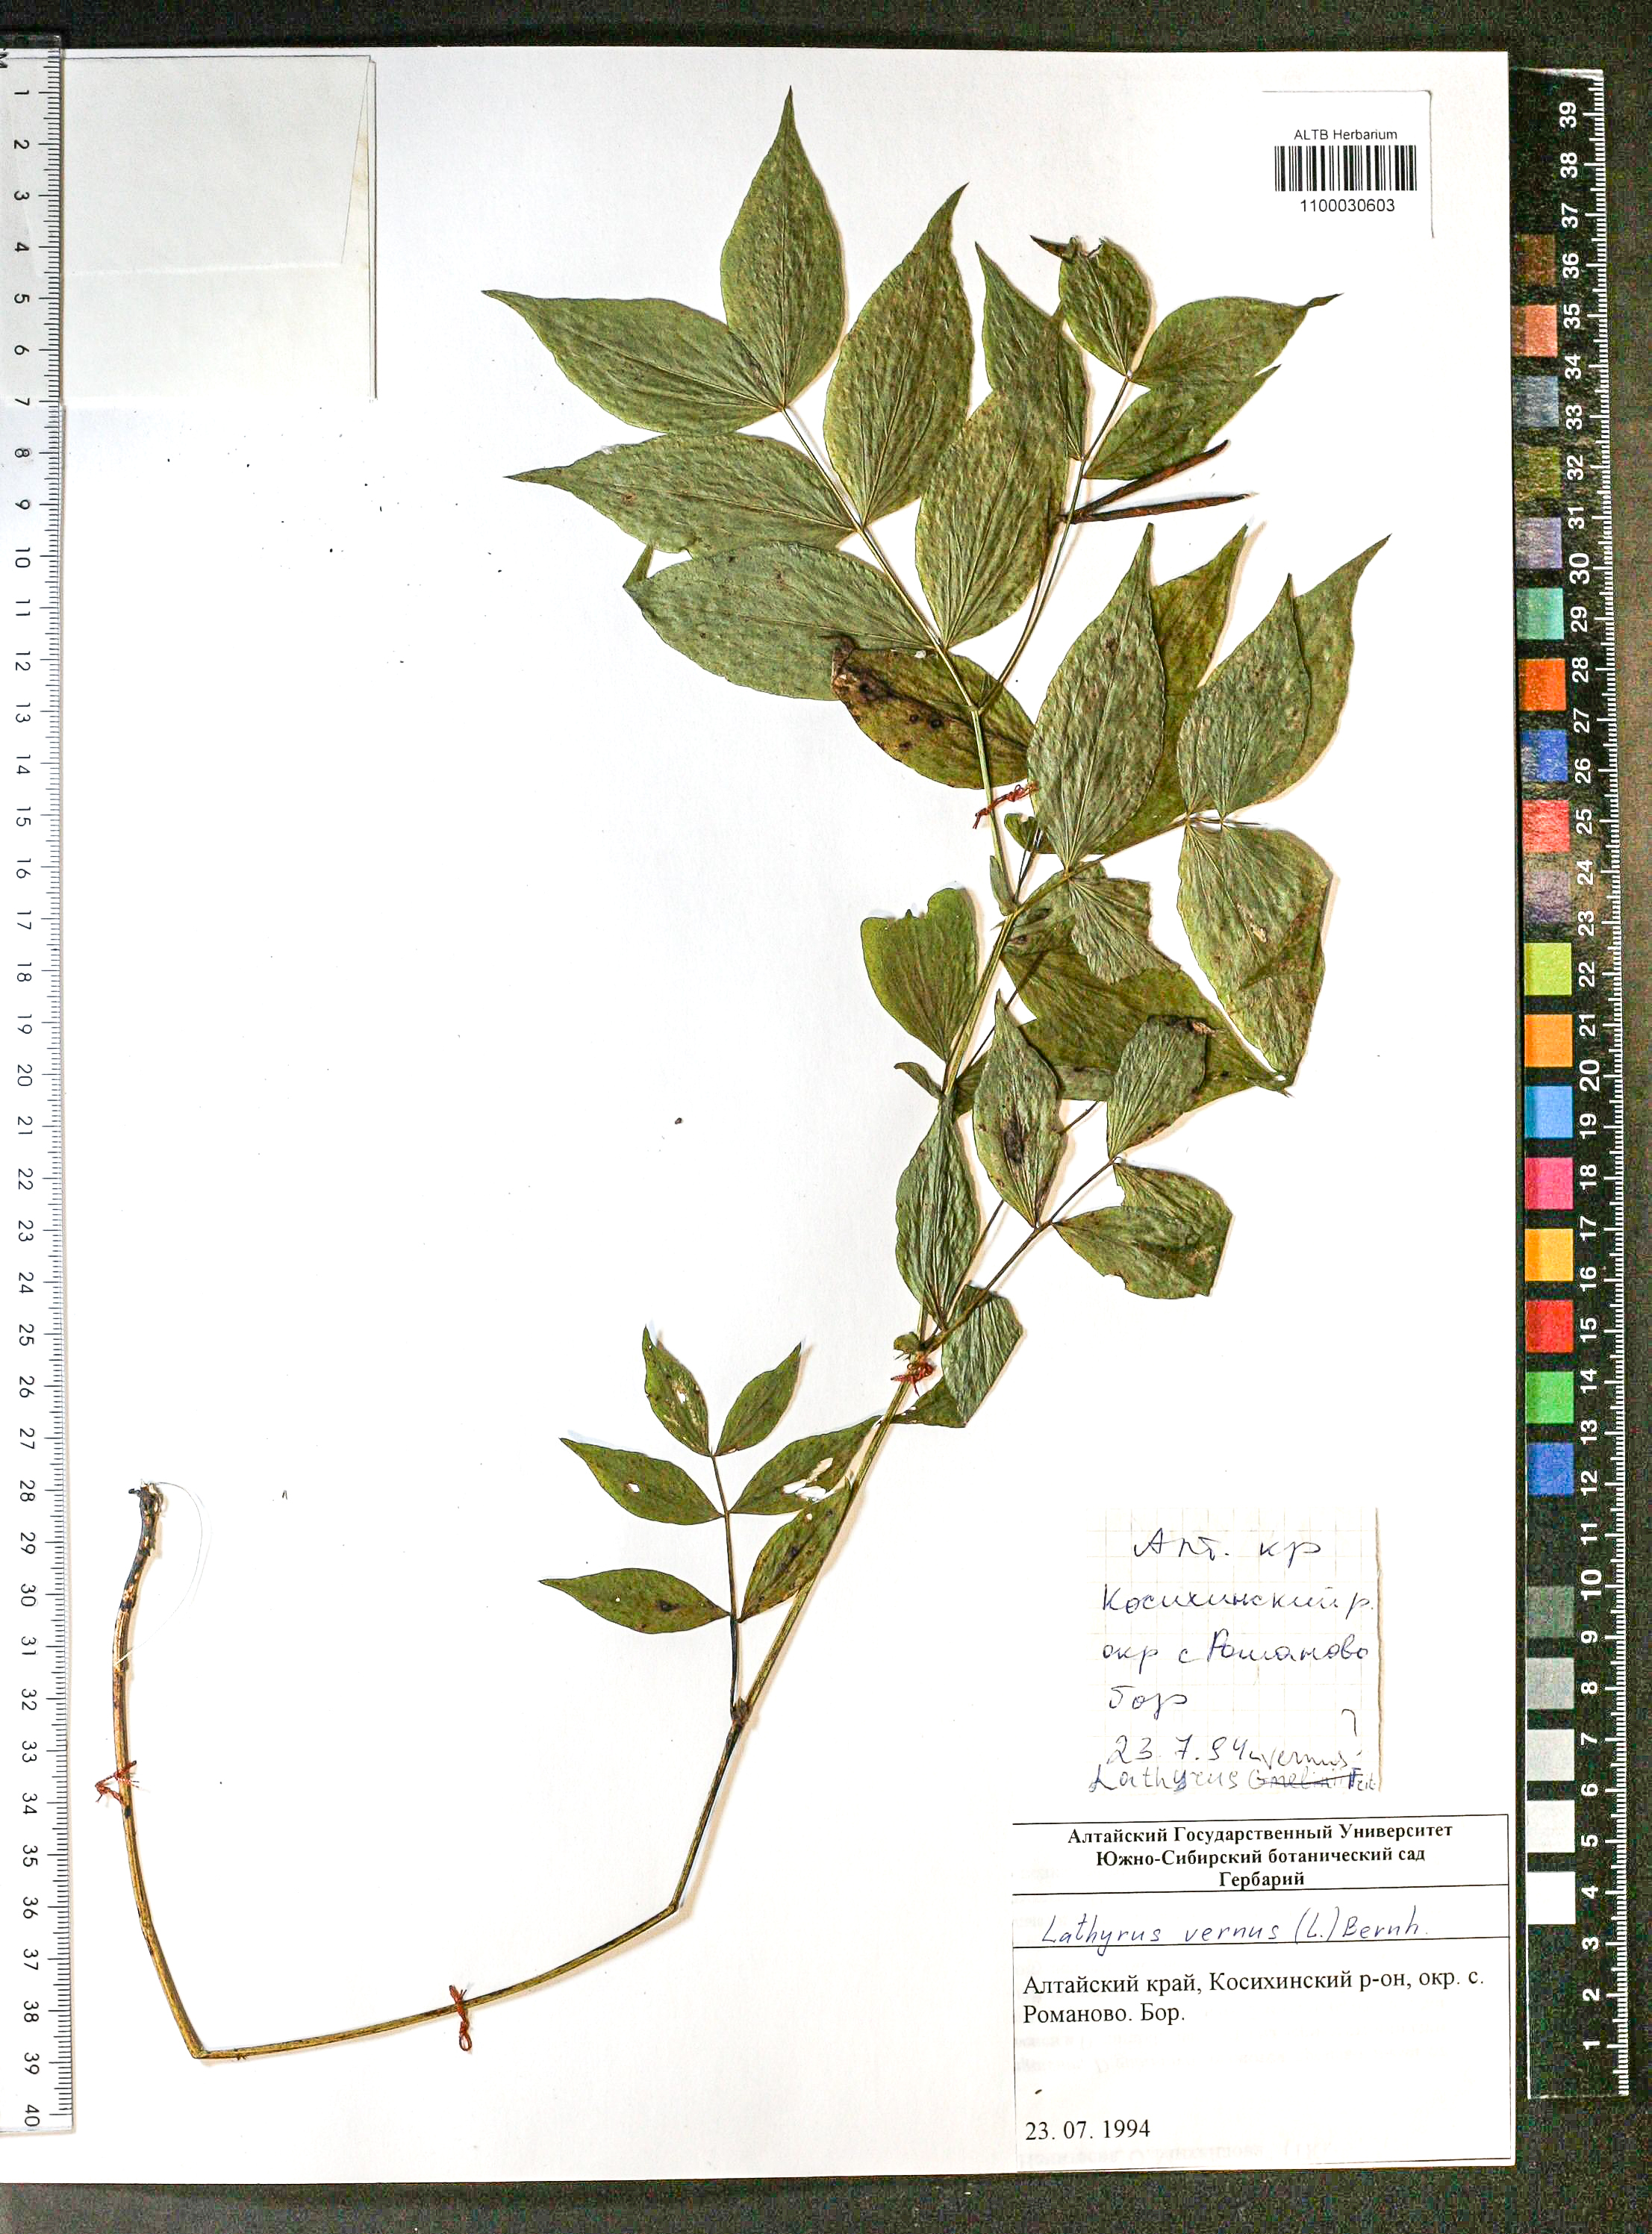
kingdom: Plantae
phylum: Tracheophyta
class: Magnoliopsida
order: Fabales
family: Fabaceae
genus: Lathyrus
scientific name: Lathyrus vernus
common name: Spring pea
